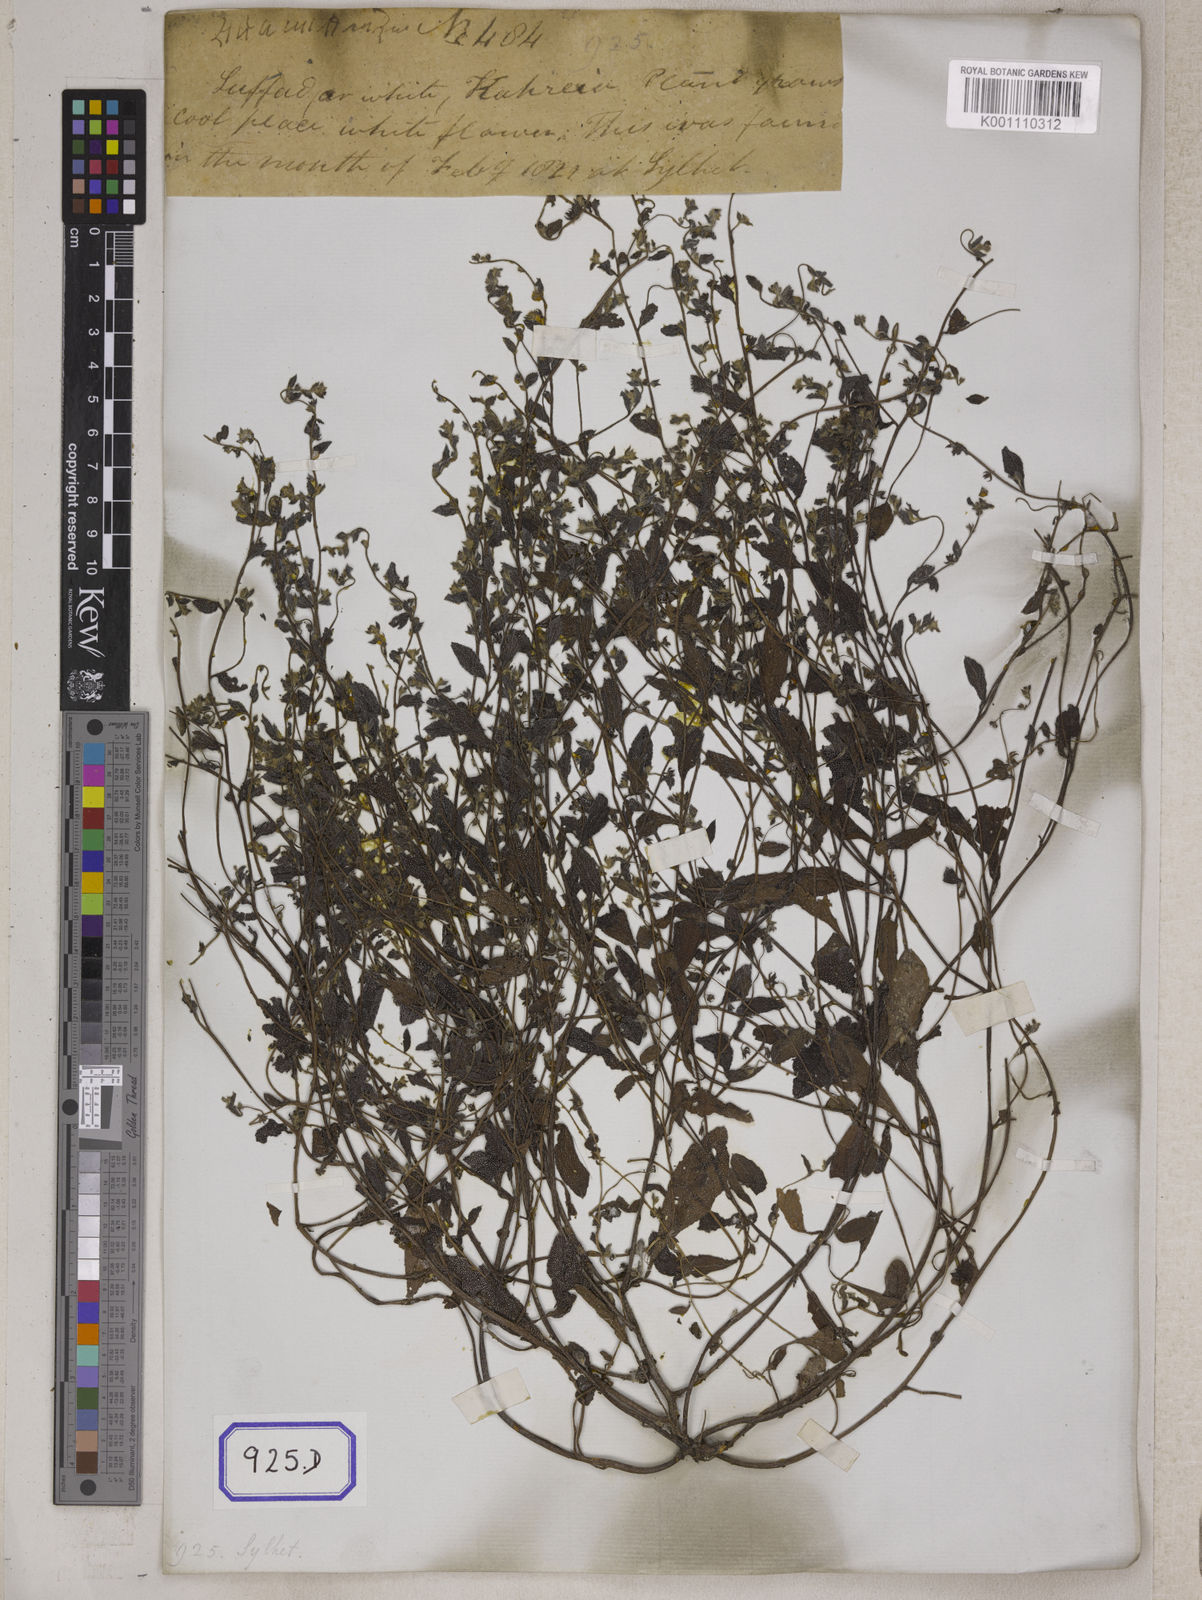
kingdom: Plantae
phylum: Tracheophyta
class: Magnoliopsida
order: Boraginales
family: Boraginaceae
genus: Cynoglossum
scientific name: Cynoglossum
